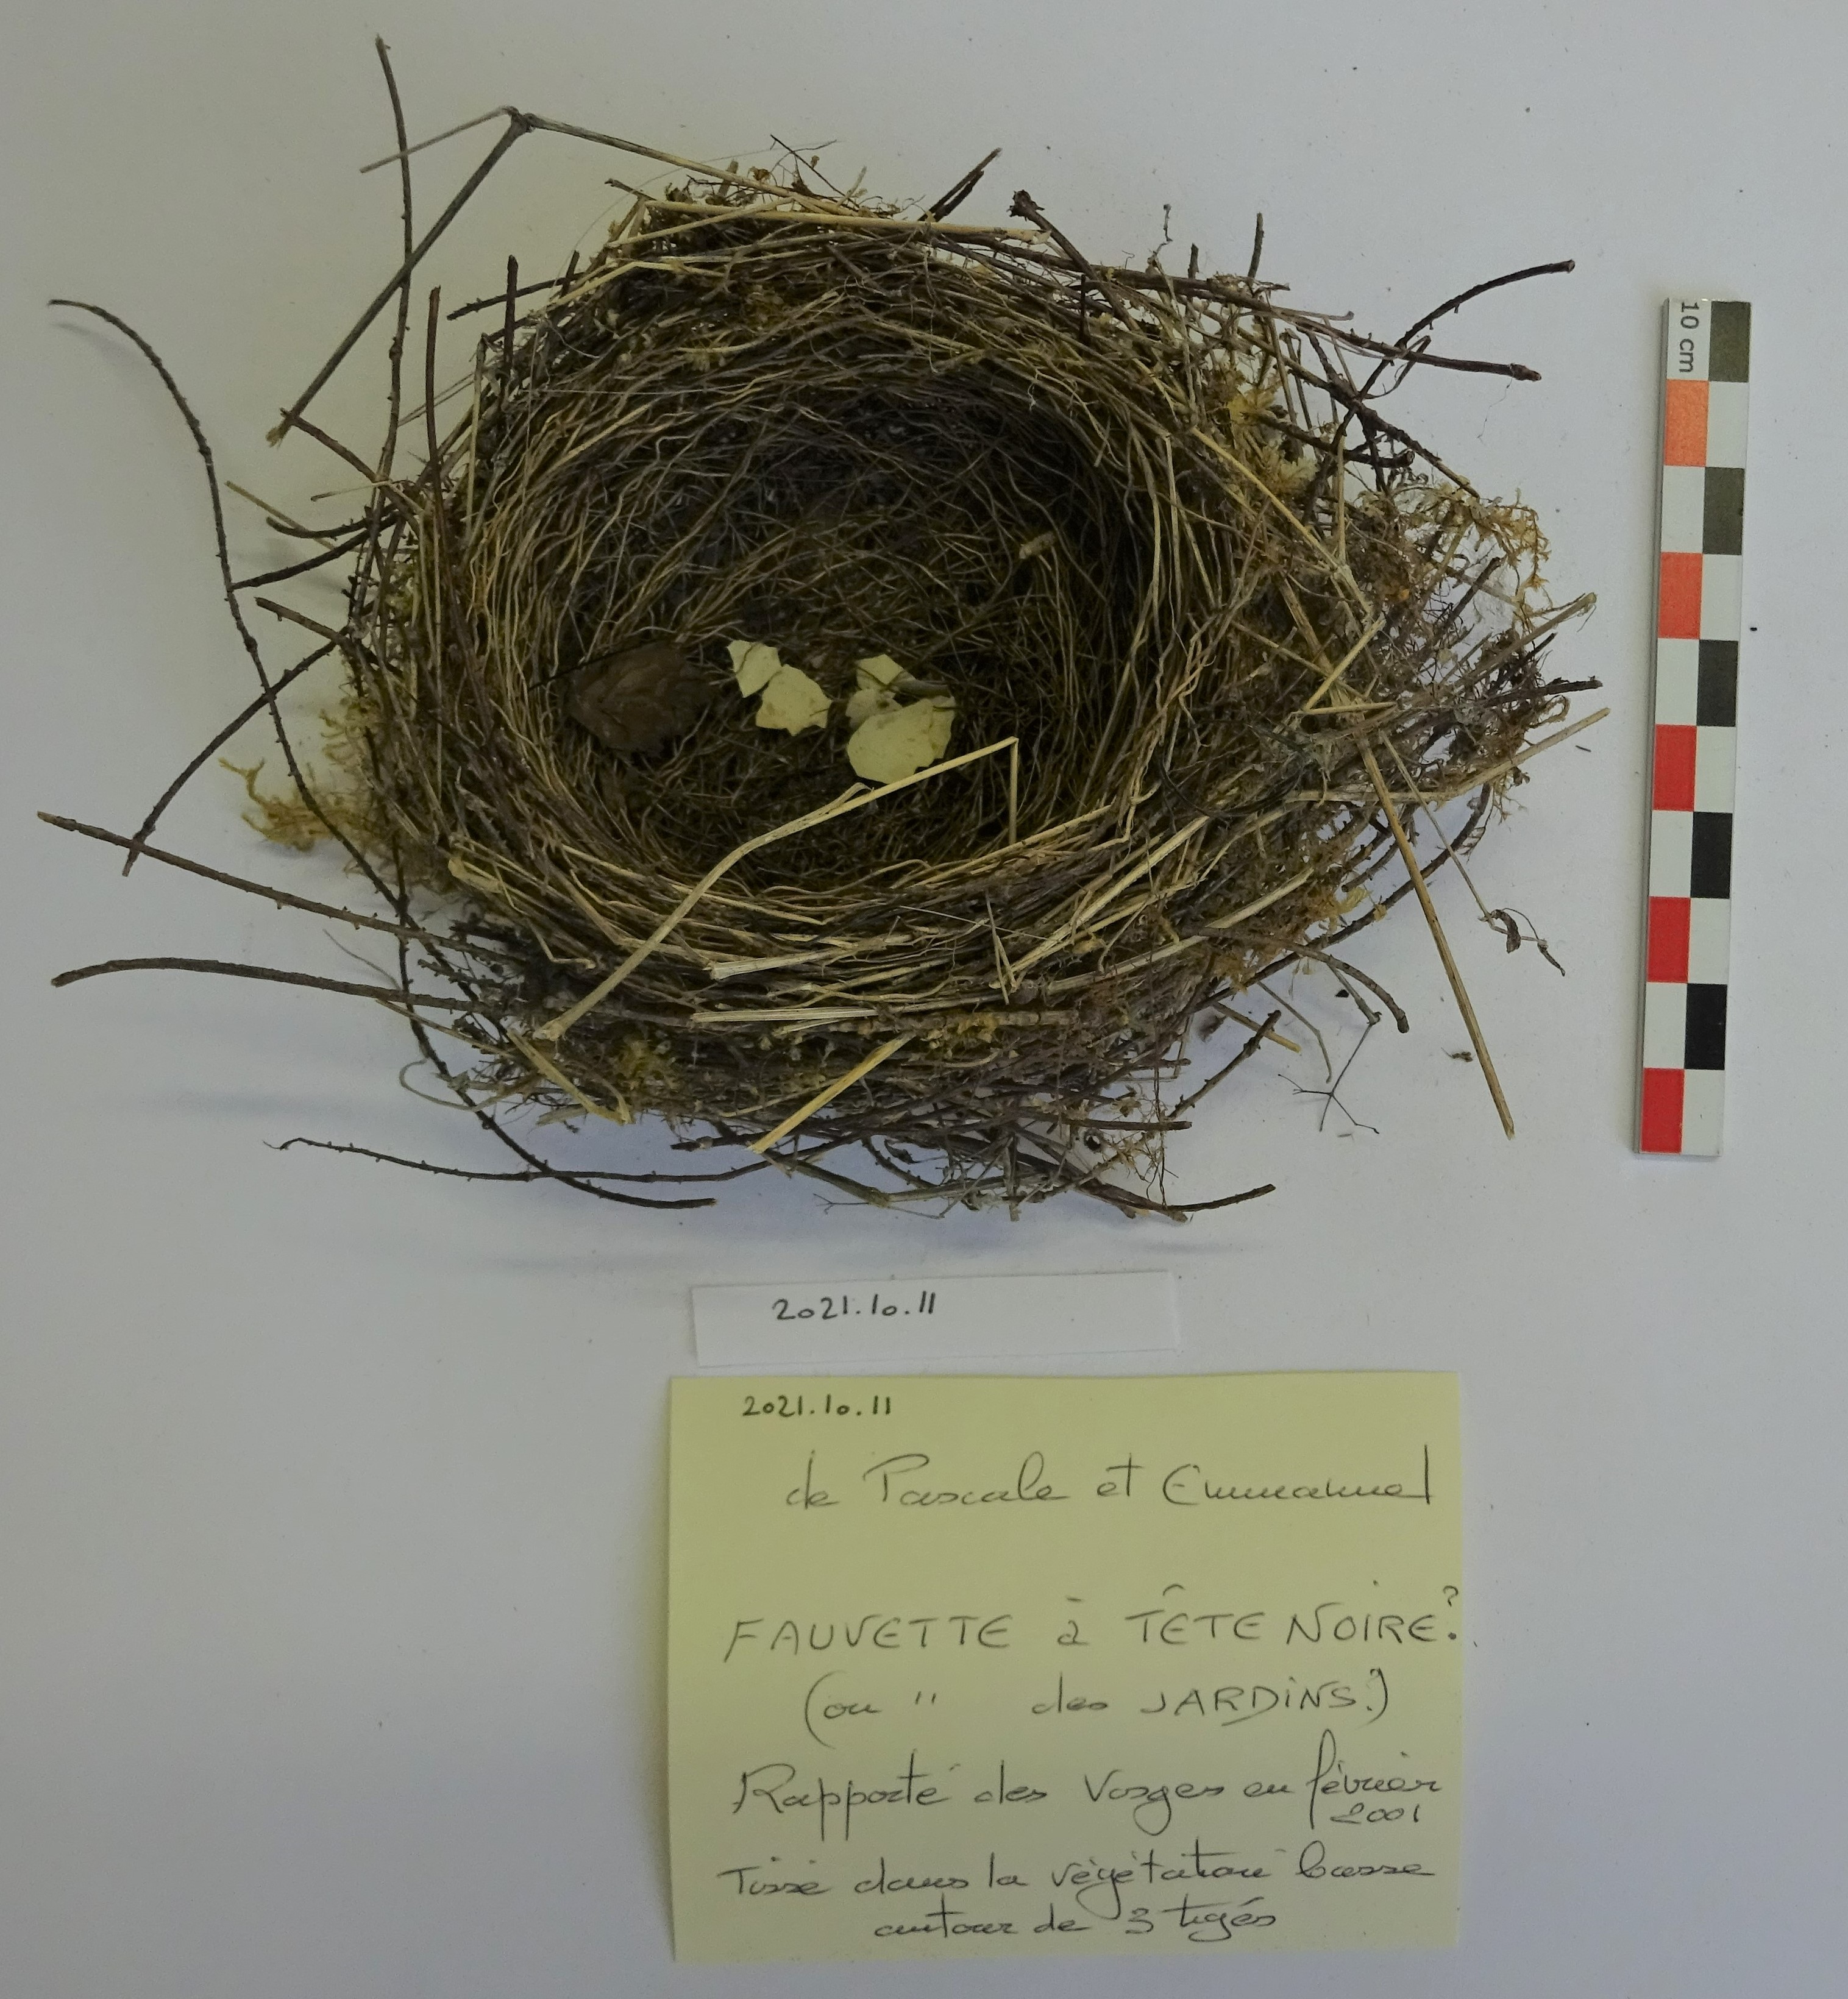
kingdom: Animalia
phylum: Chordata
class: Aves
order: Passeriformes
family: Sylviidae
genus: Sylvia
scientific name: Sylvia atricapilla
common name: Eurasian blackcap
